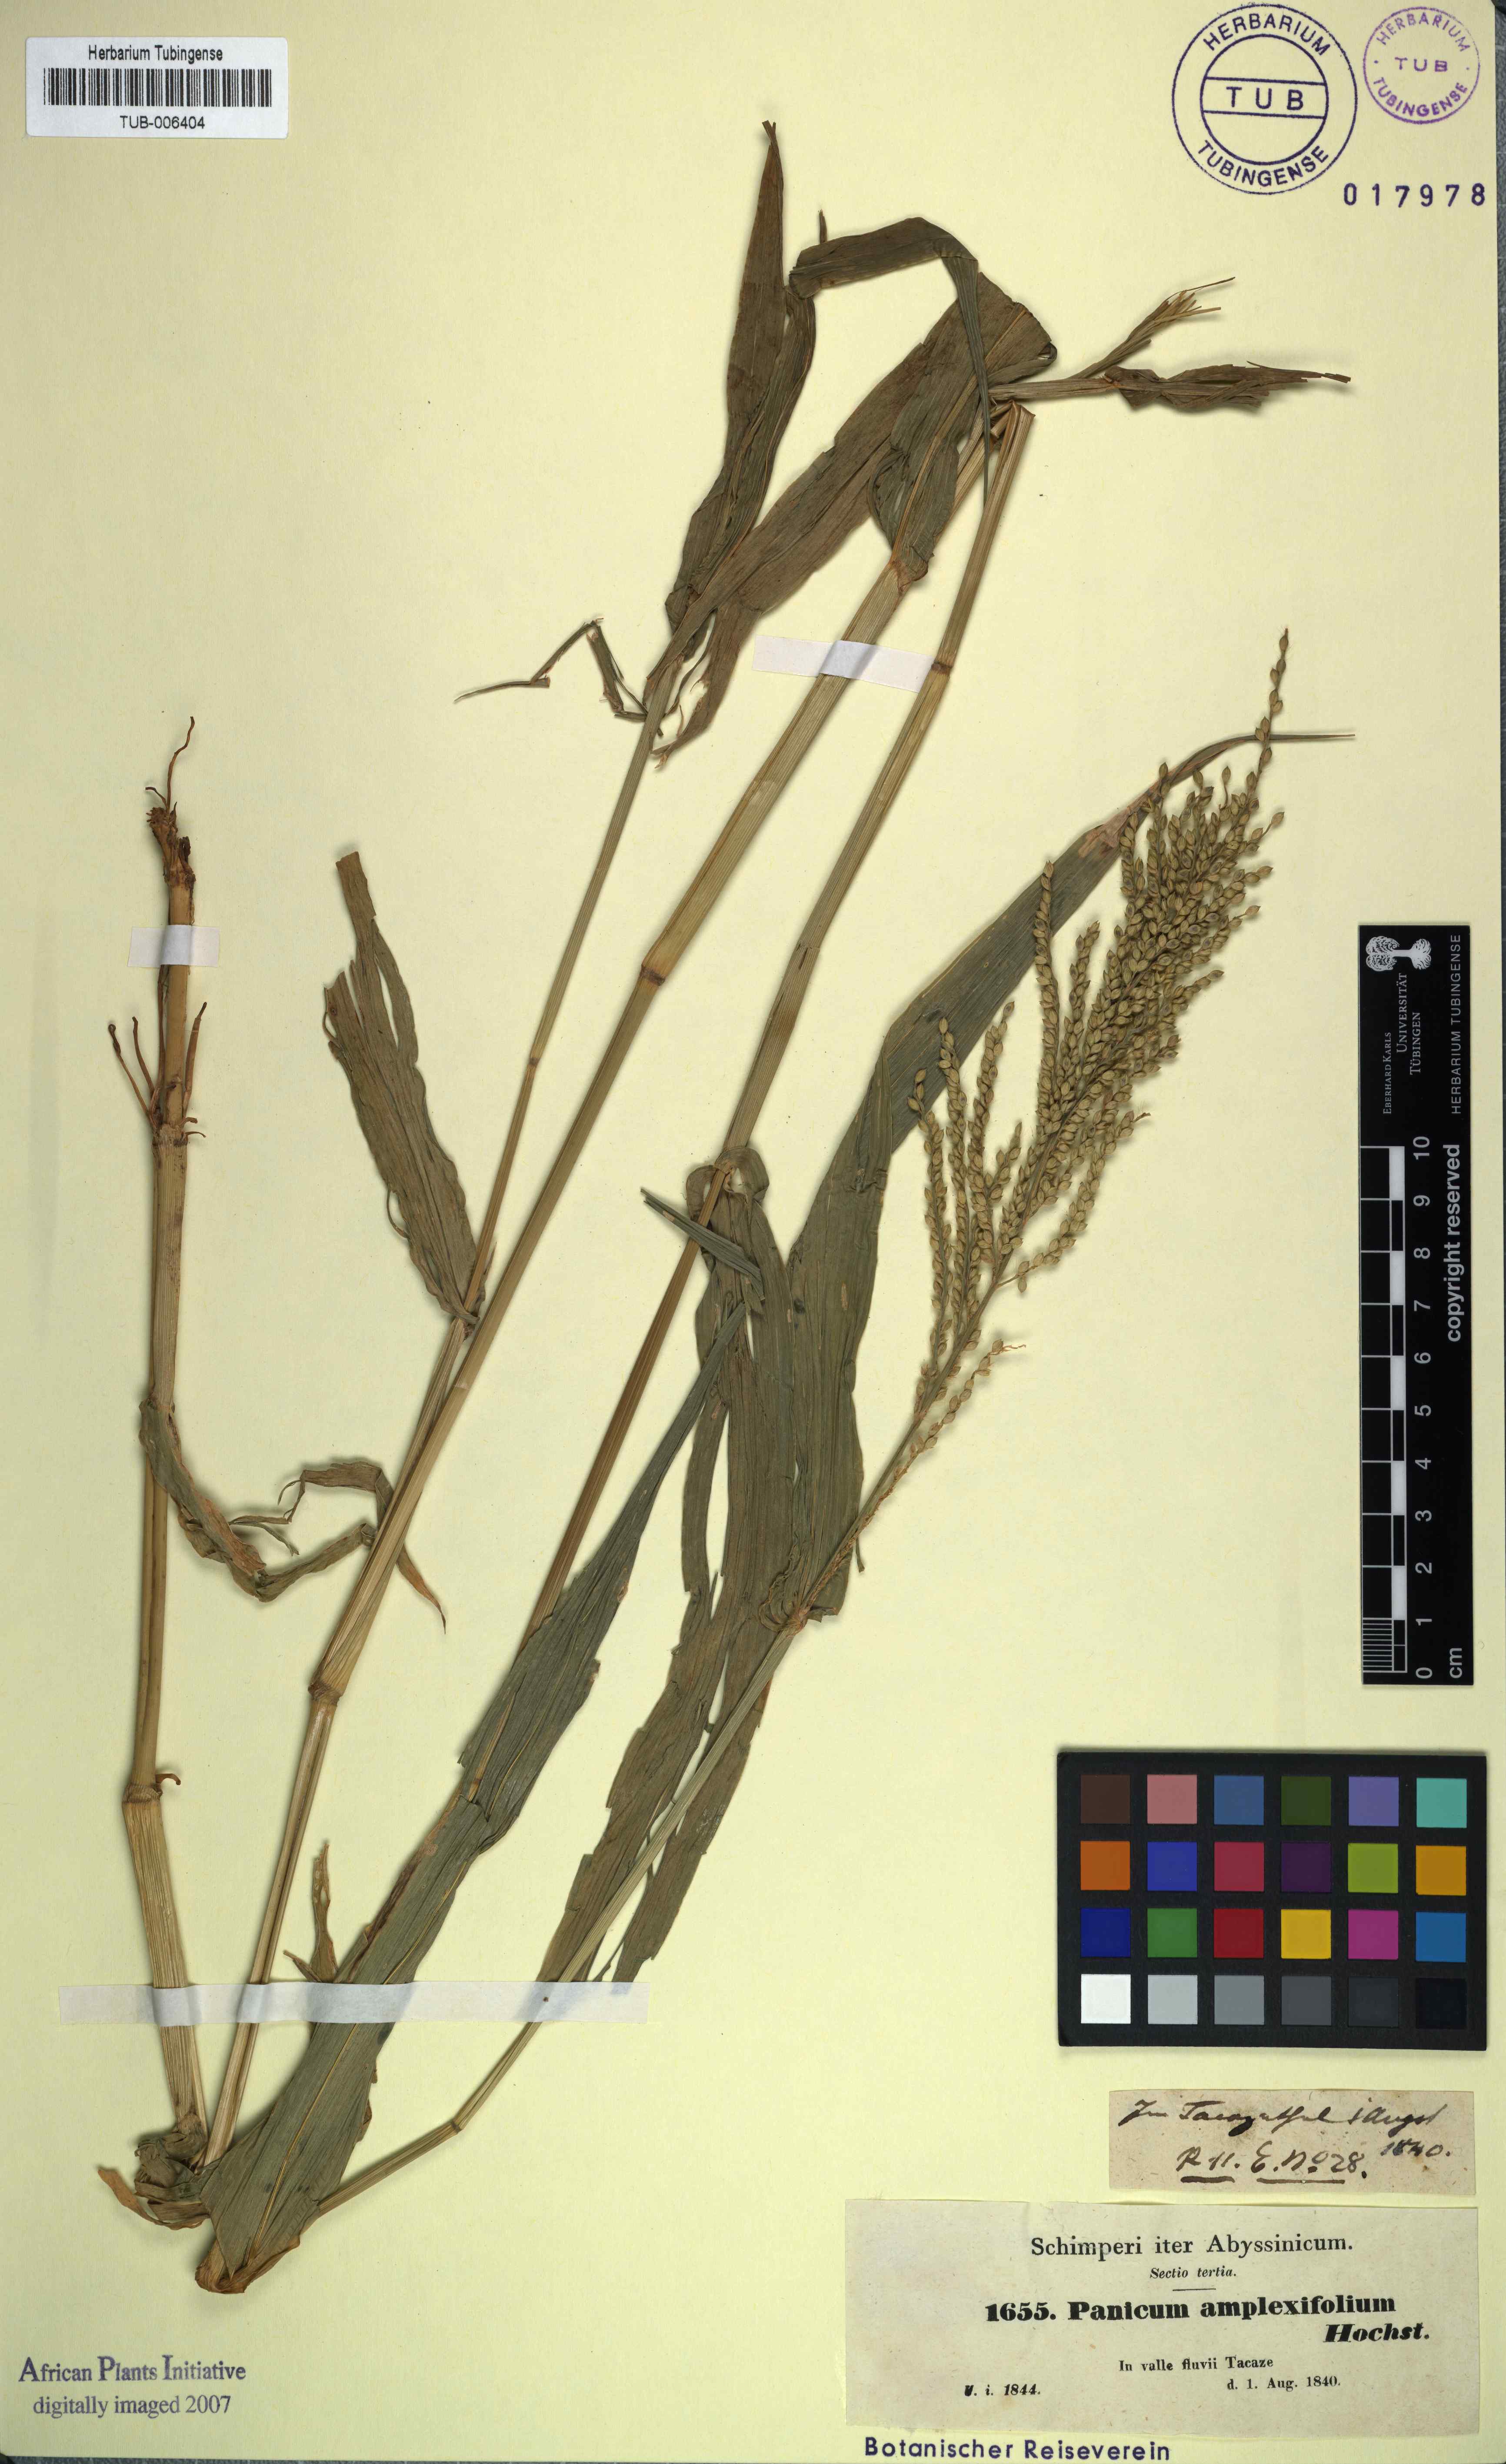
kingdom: Plantae
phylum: Tracheophyta
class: Liliopsida
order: Poales
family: Poaceae
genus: Urochloa
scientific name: Urochloa lata
